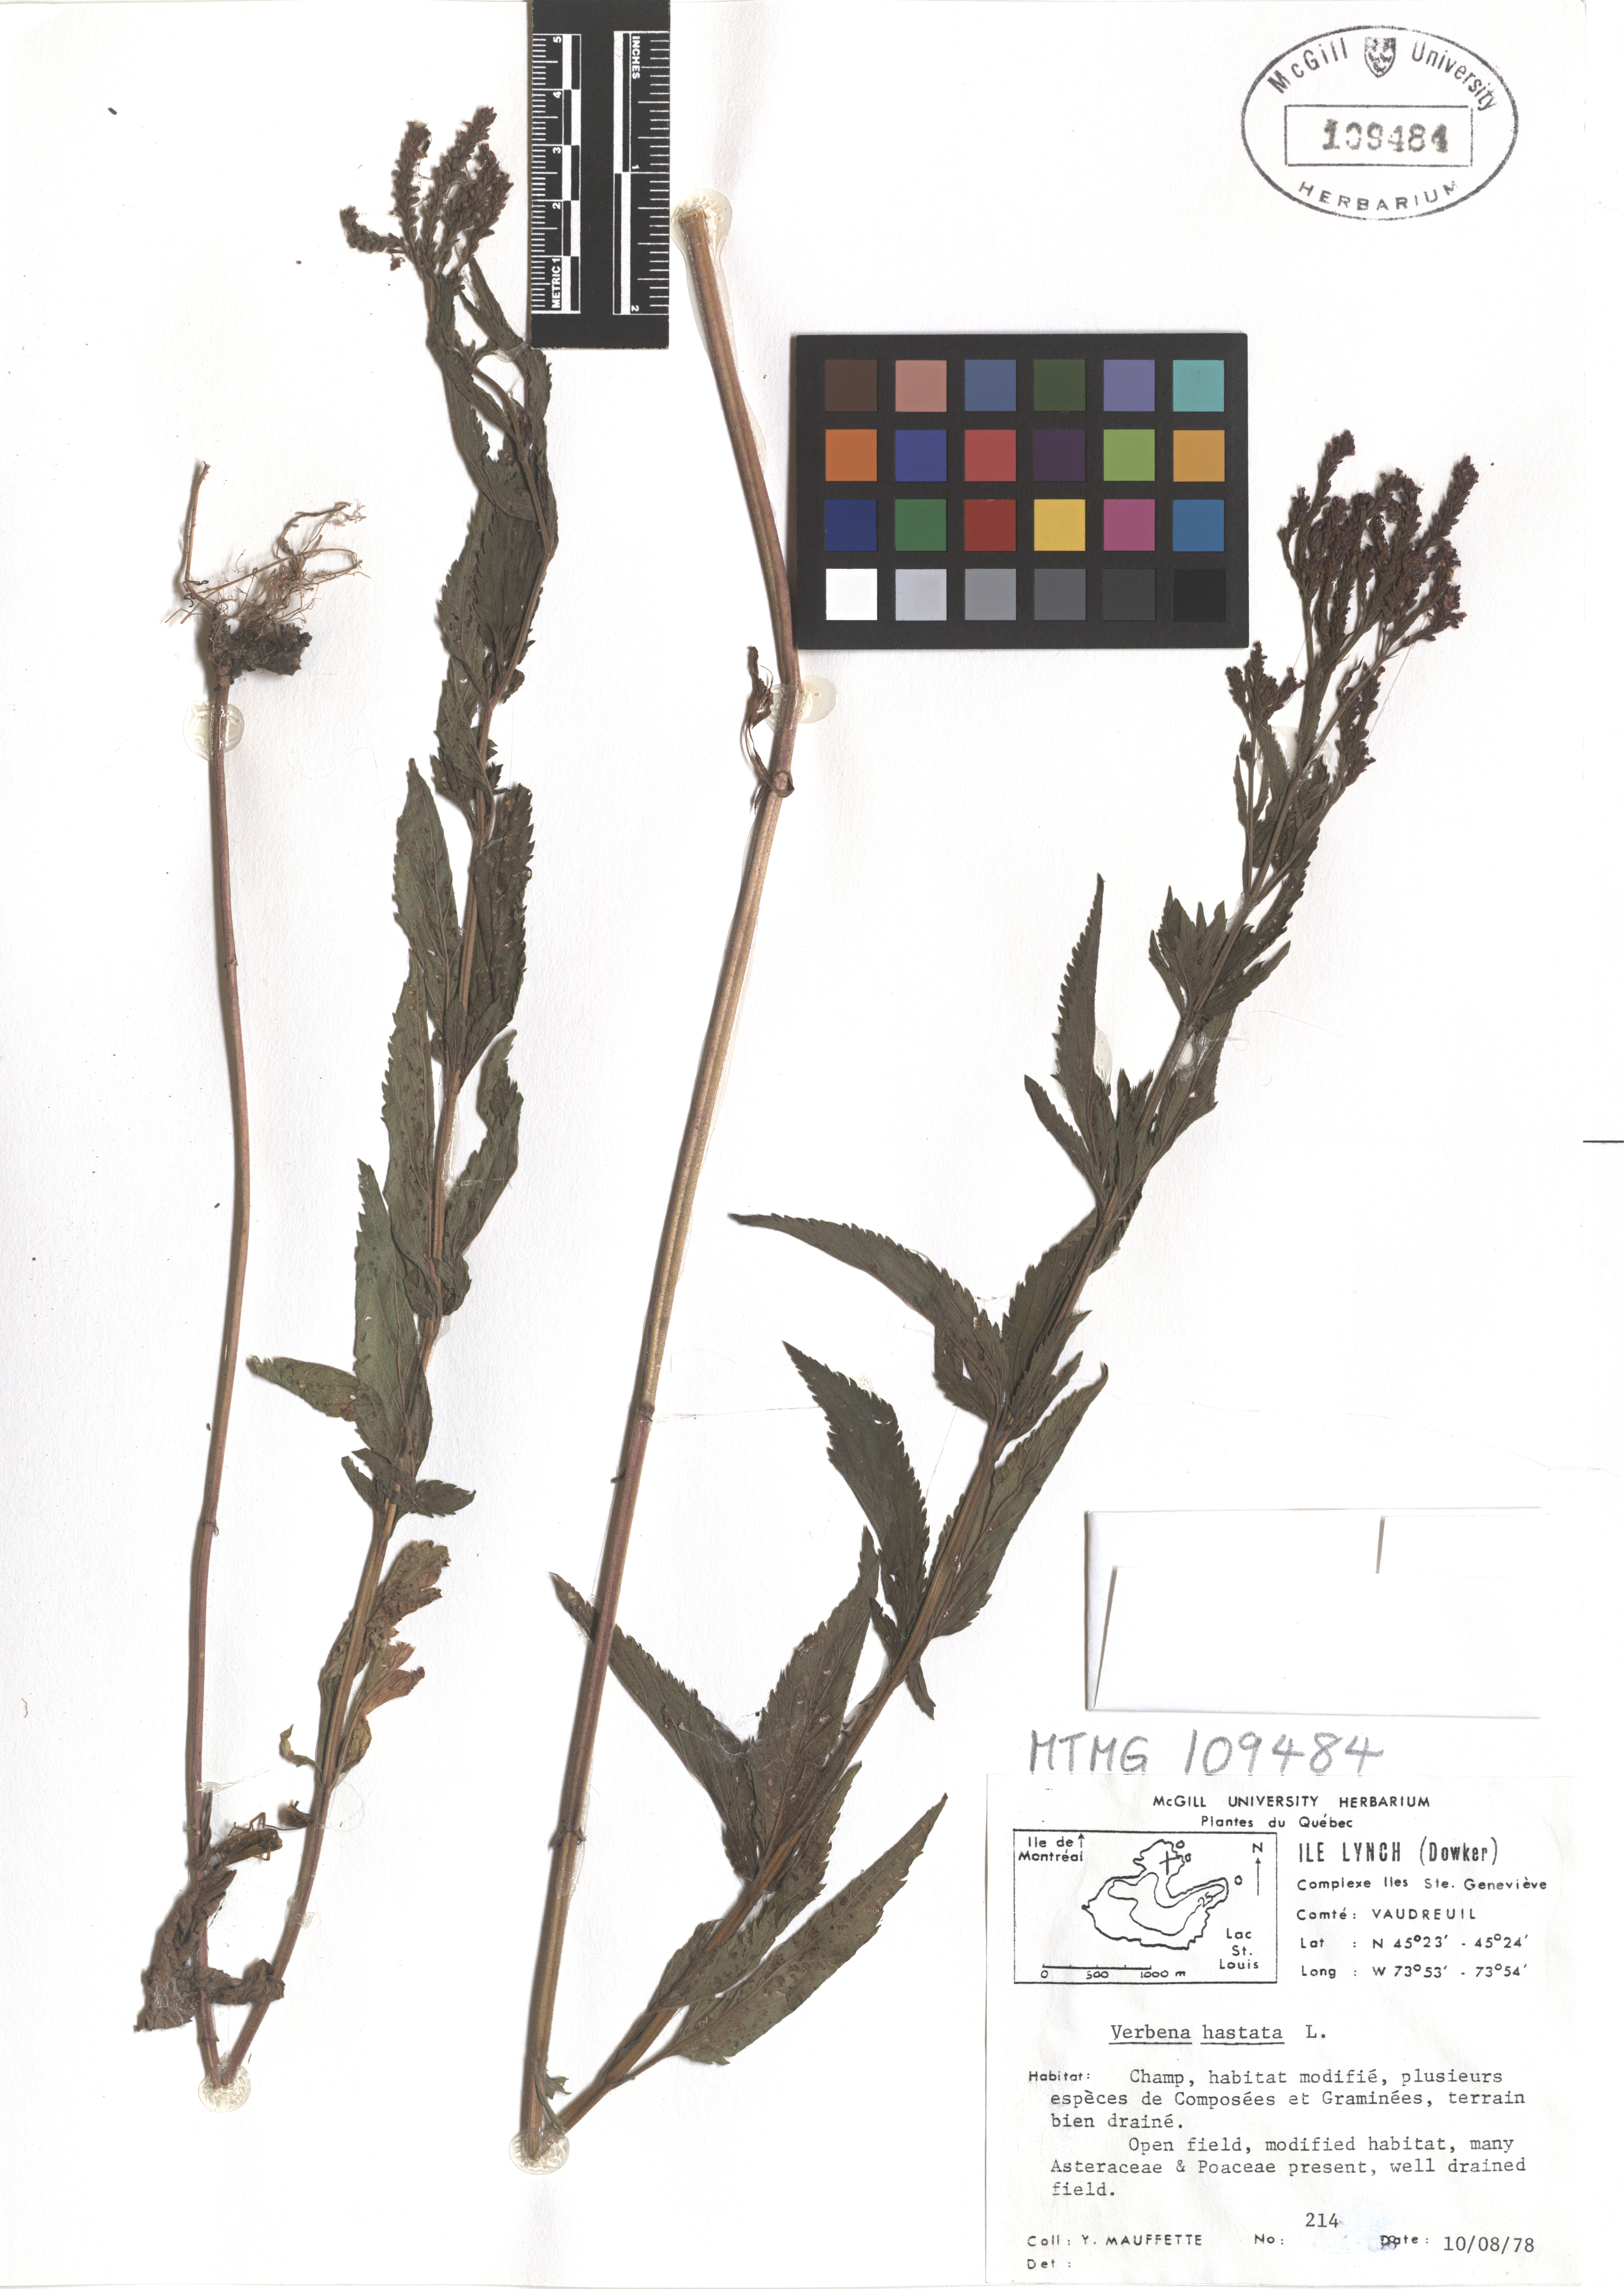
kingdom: Plantae
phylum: Tracheophyta
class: Magnoliopsida
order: Lamiales
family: Verbenaceae
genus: Verbena
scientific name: Verbena hastata
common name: American blue vervain
